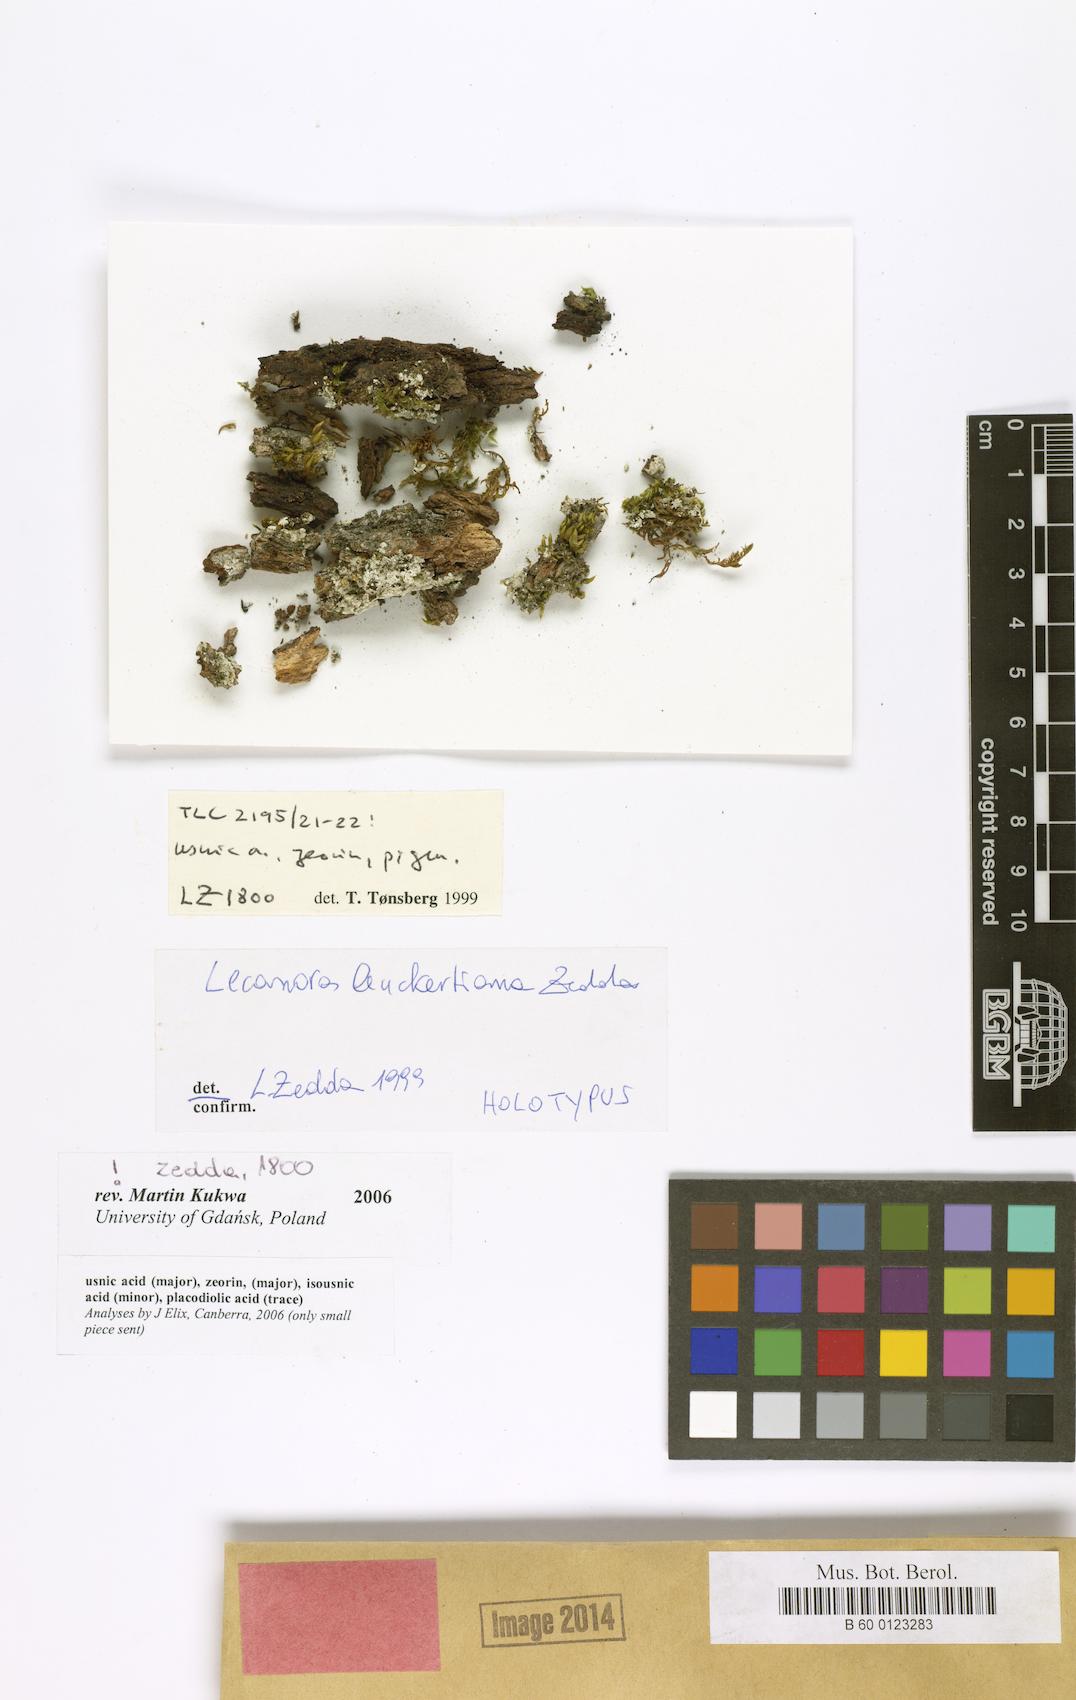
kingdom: Fungi
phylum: Ascomycota
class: Lecanoromycetes
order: Lecanorales
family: Stereocaulaceae
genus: Lepraria
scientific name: Lepraria leuckertiana
